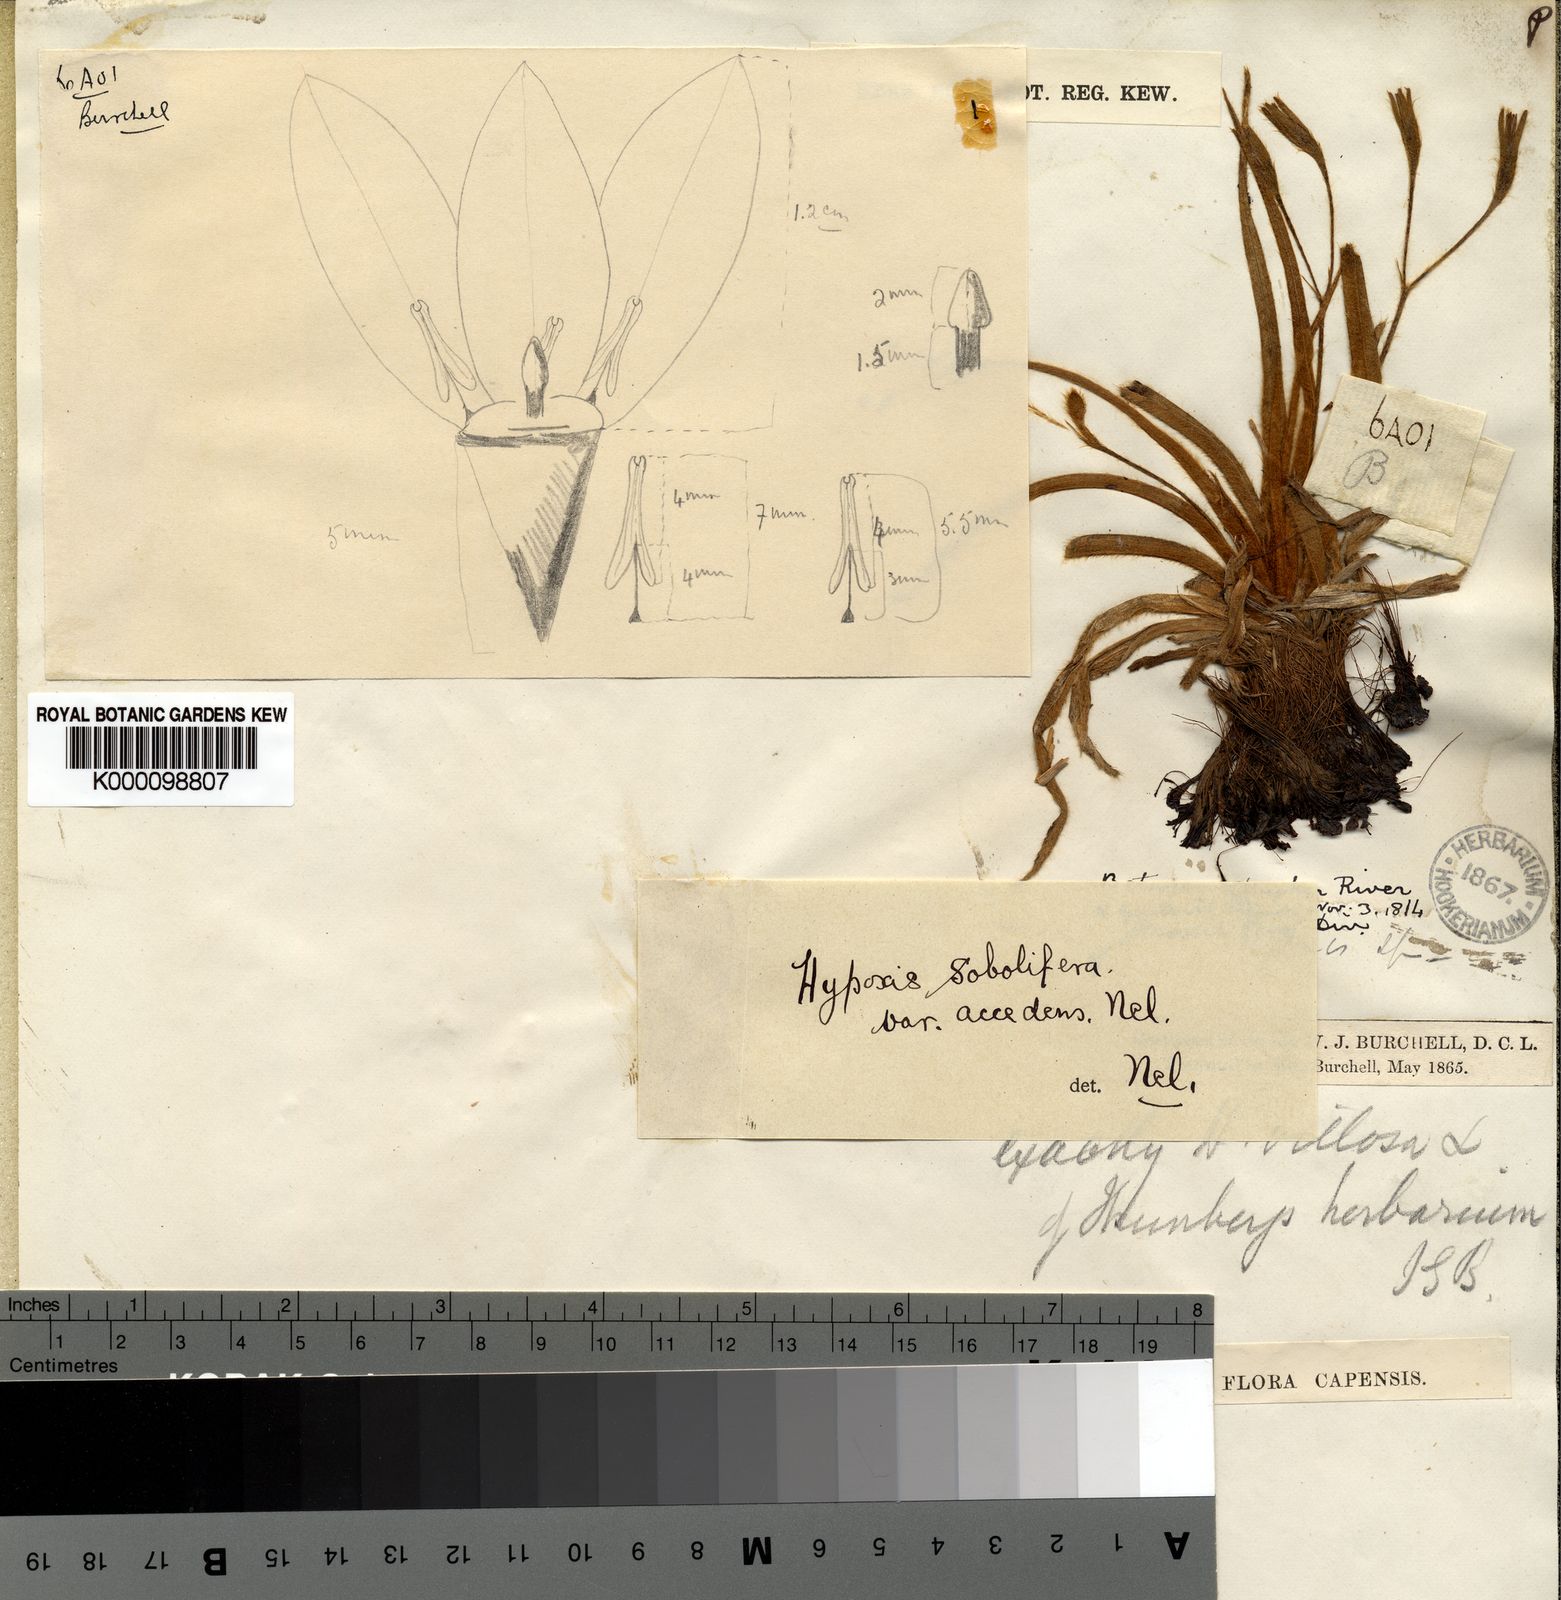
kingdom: Plantae
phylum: Tracheophyta
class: Liliopsida
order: Asparagales
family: Hypoxidaceae
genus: Hypoxis
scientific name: Hypoxis
